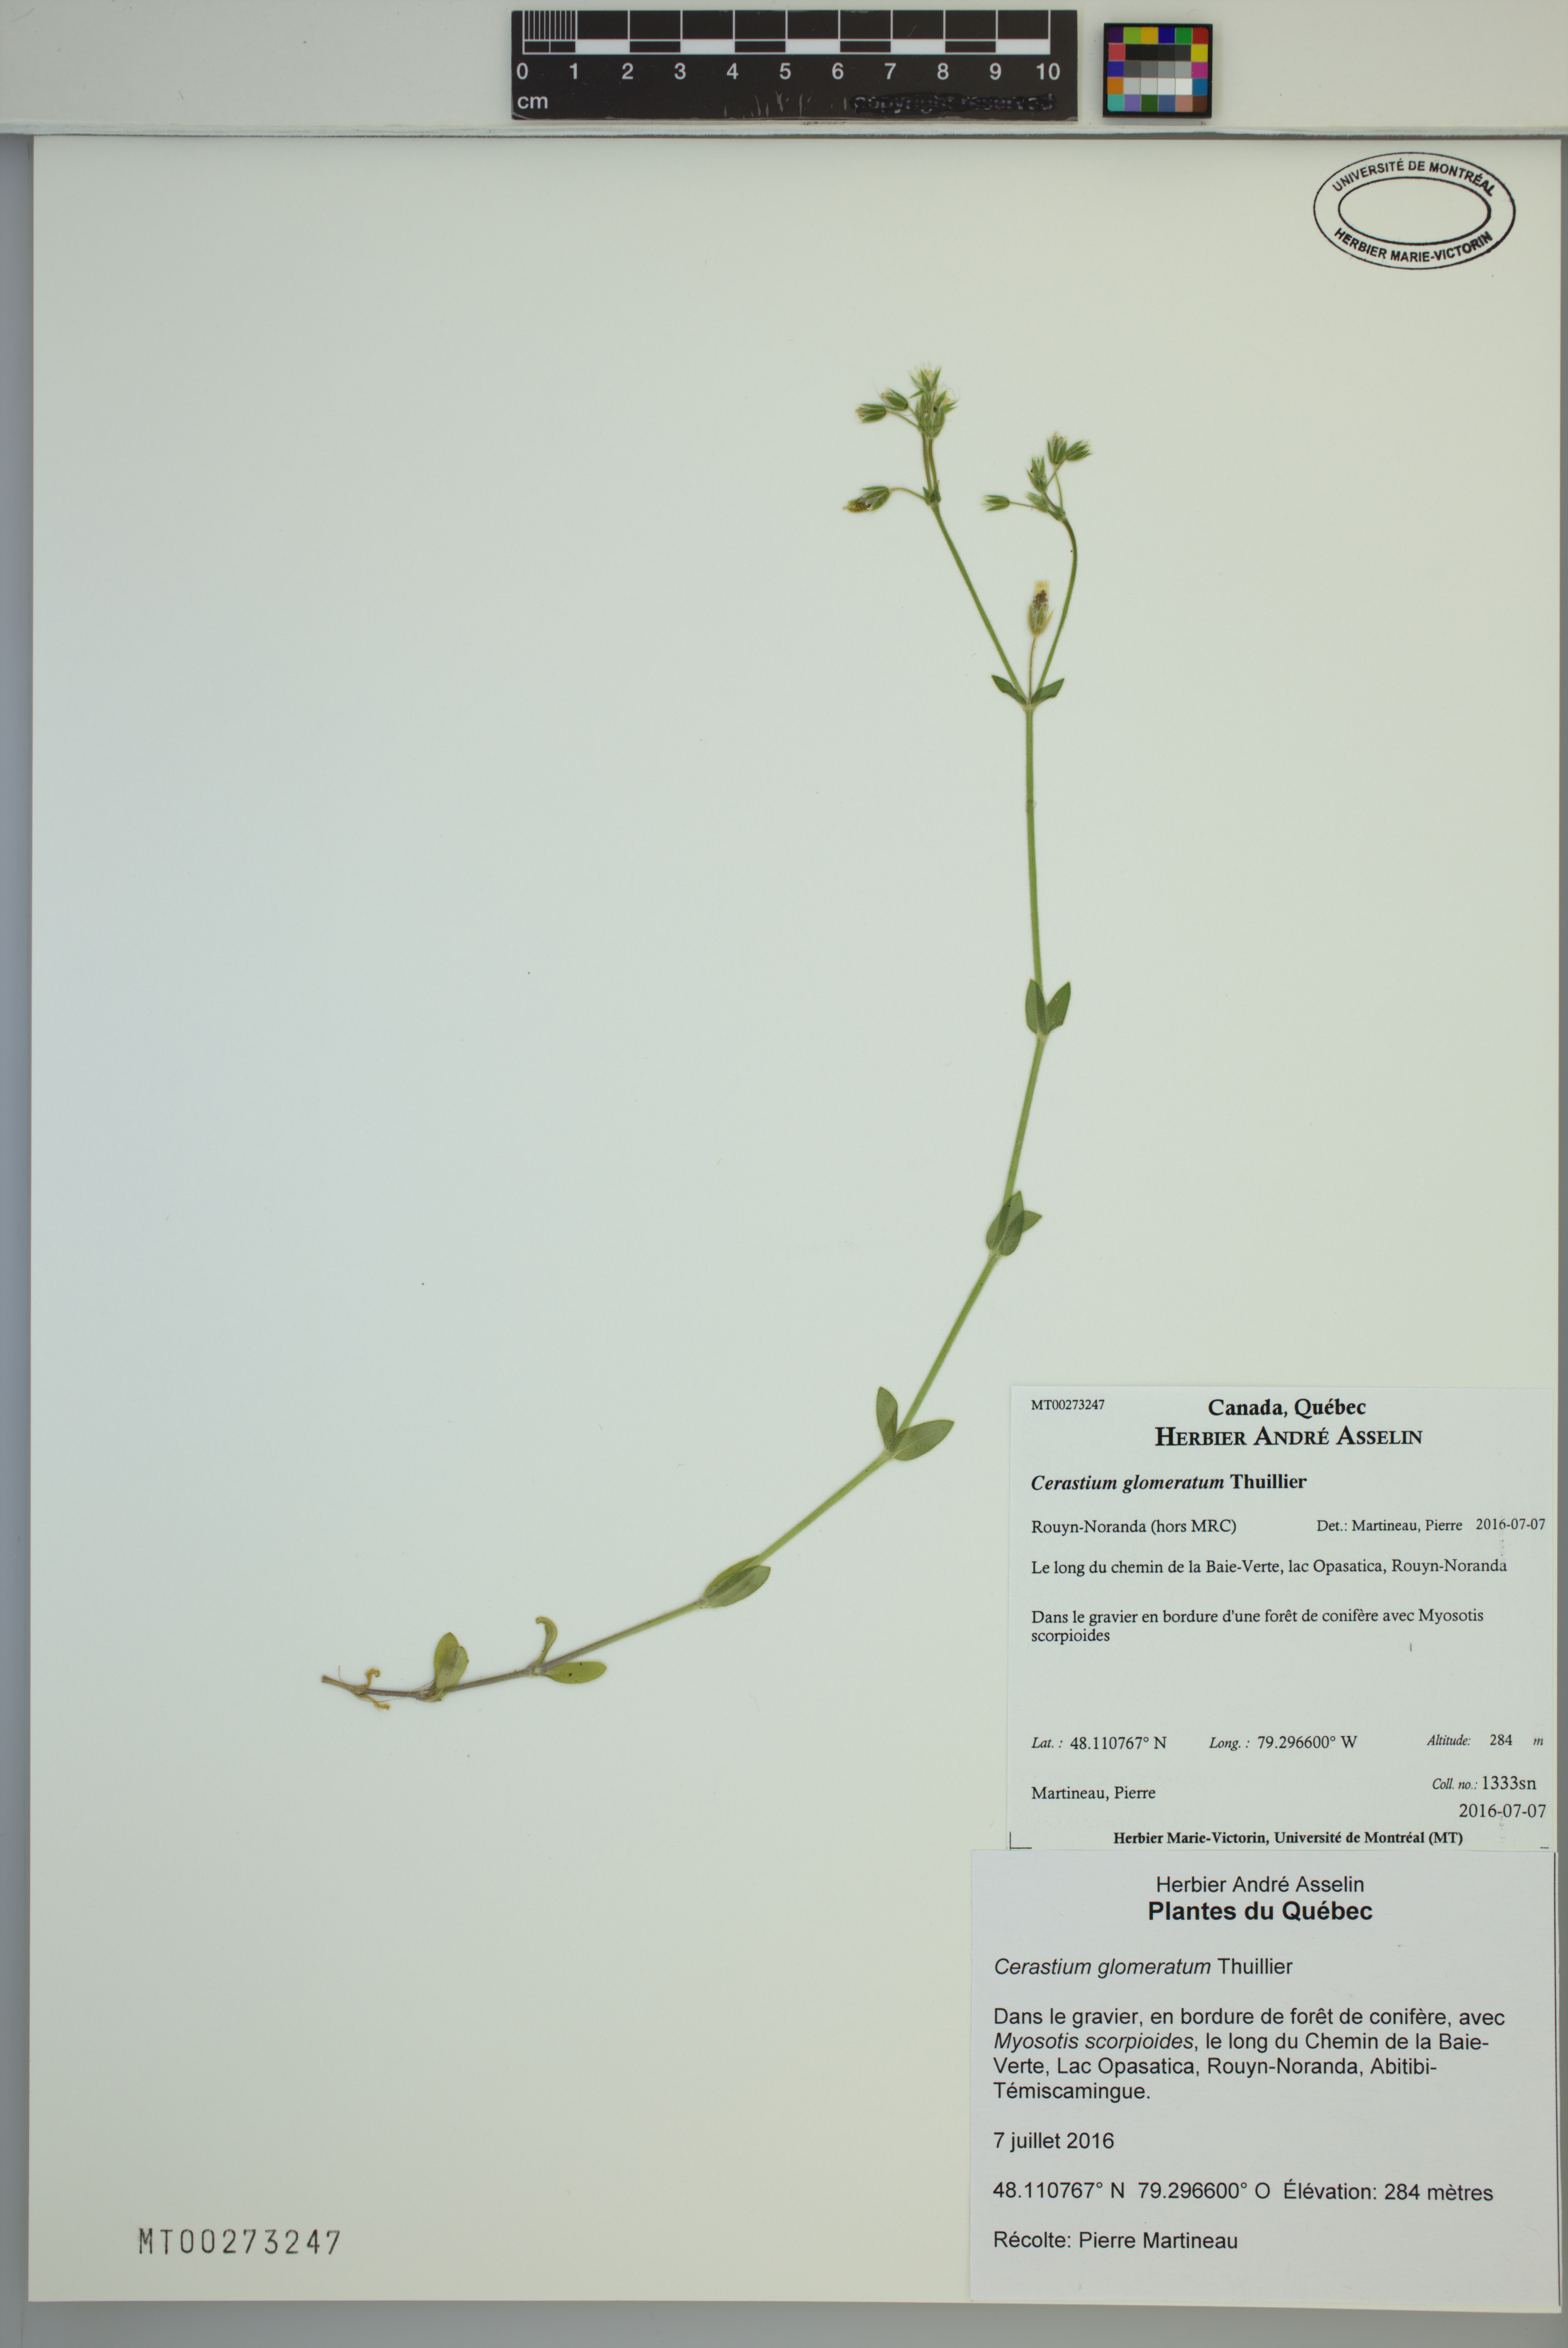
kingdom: Plantae
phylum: Tracheophyta
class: Magnoliopsida
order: Caryophyllales
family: Caryophyllaceae
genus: Cerastium
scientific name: Cerastium glomeratum
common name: Sticky chickweed
